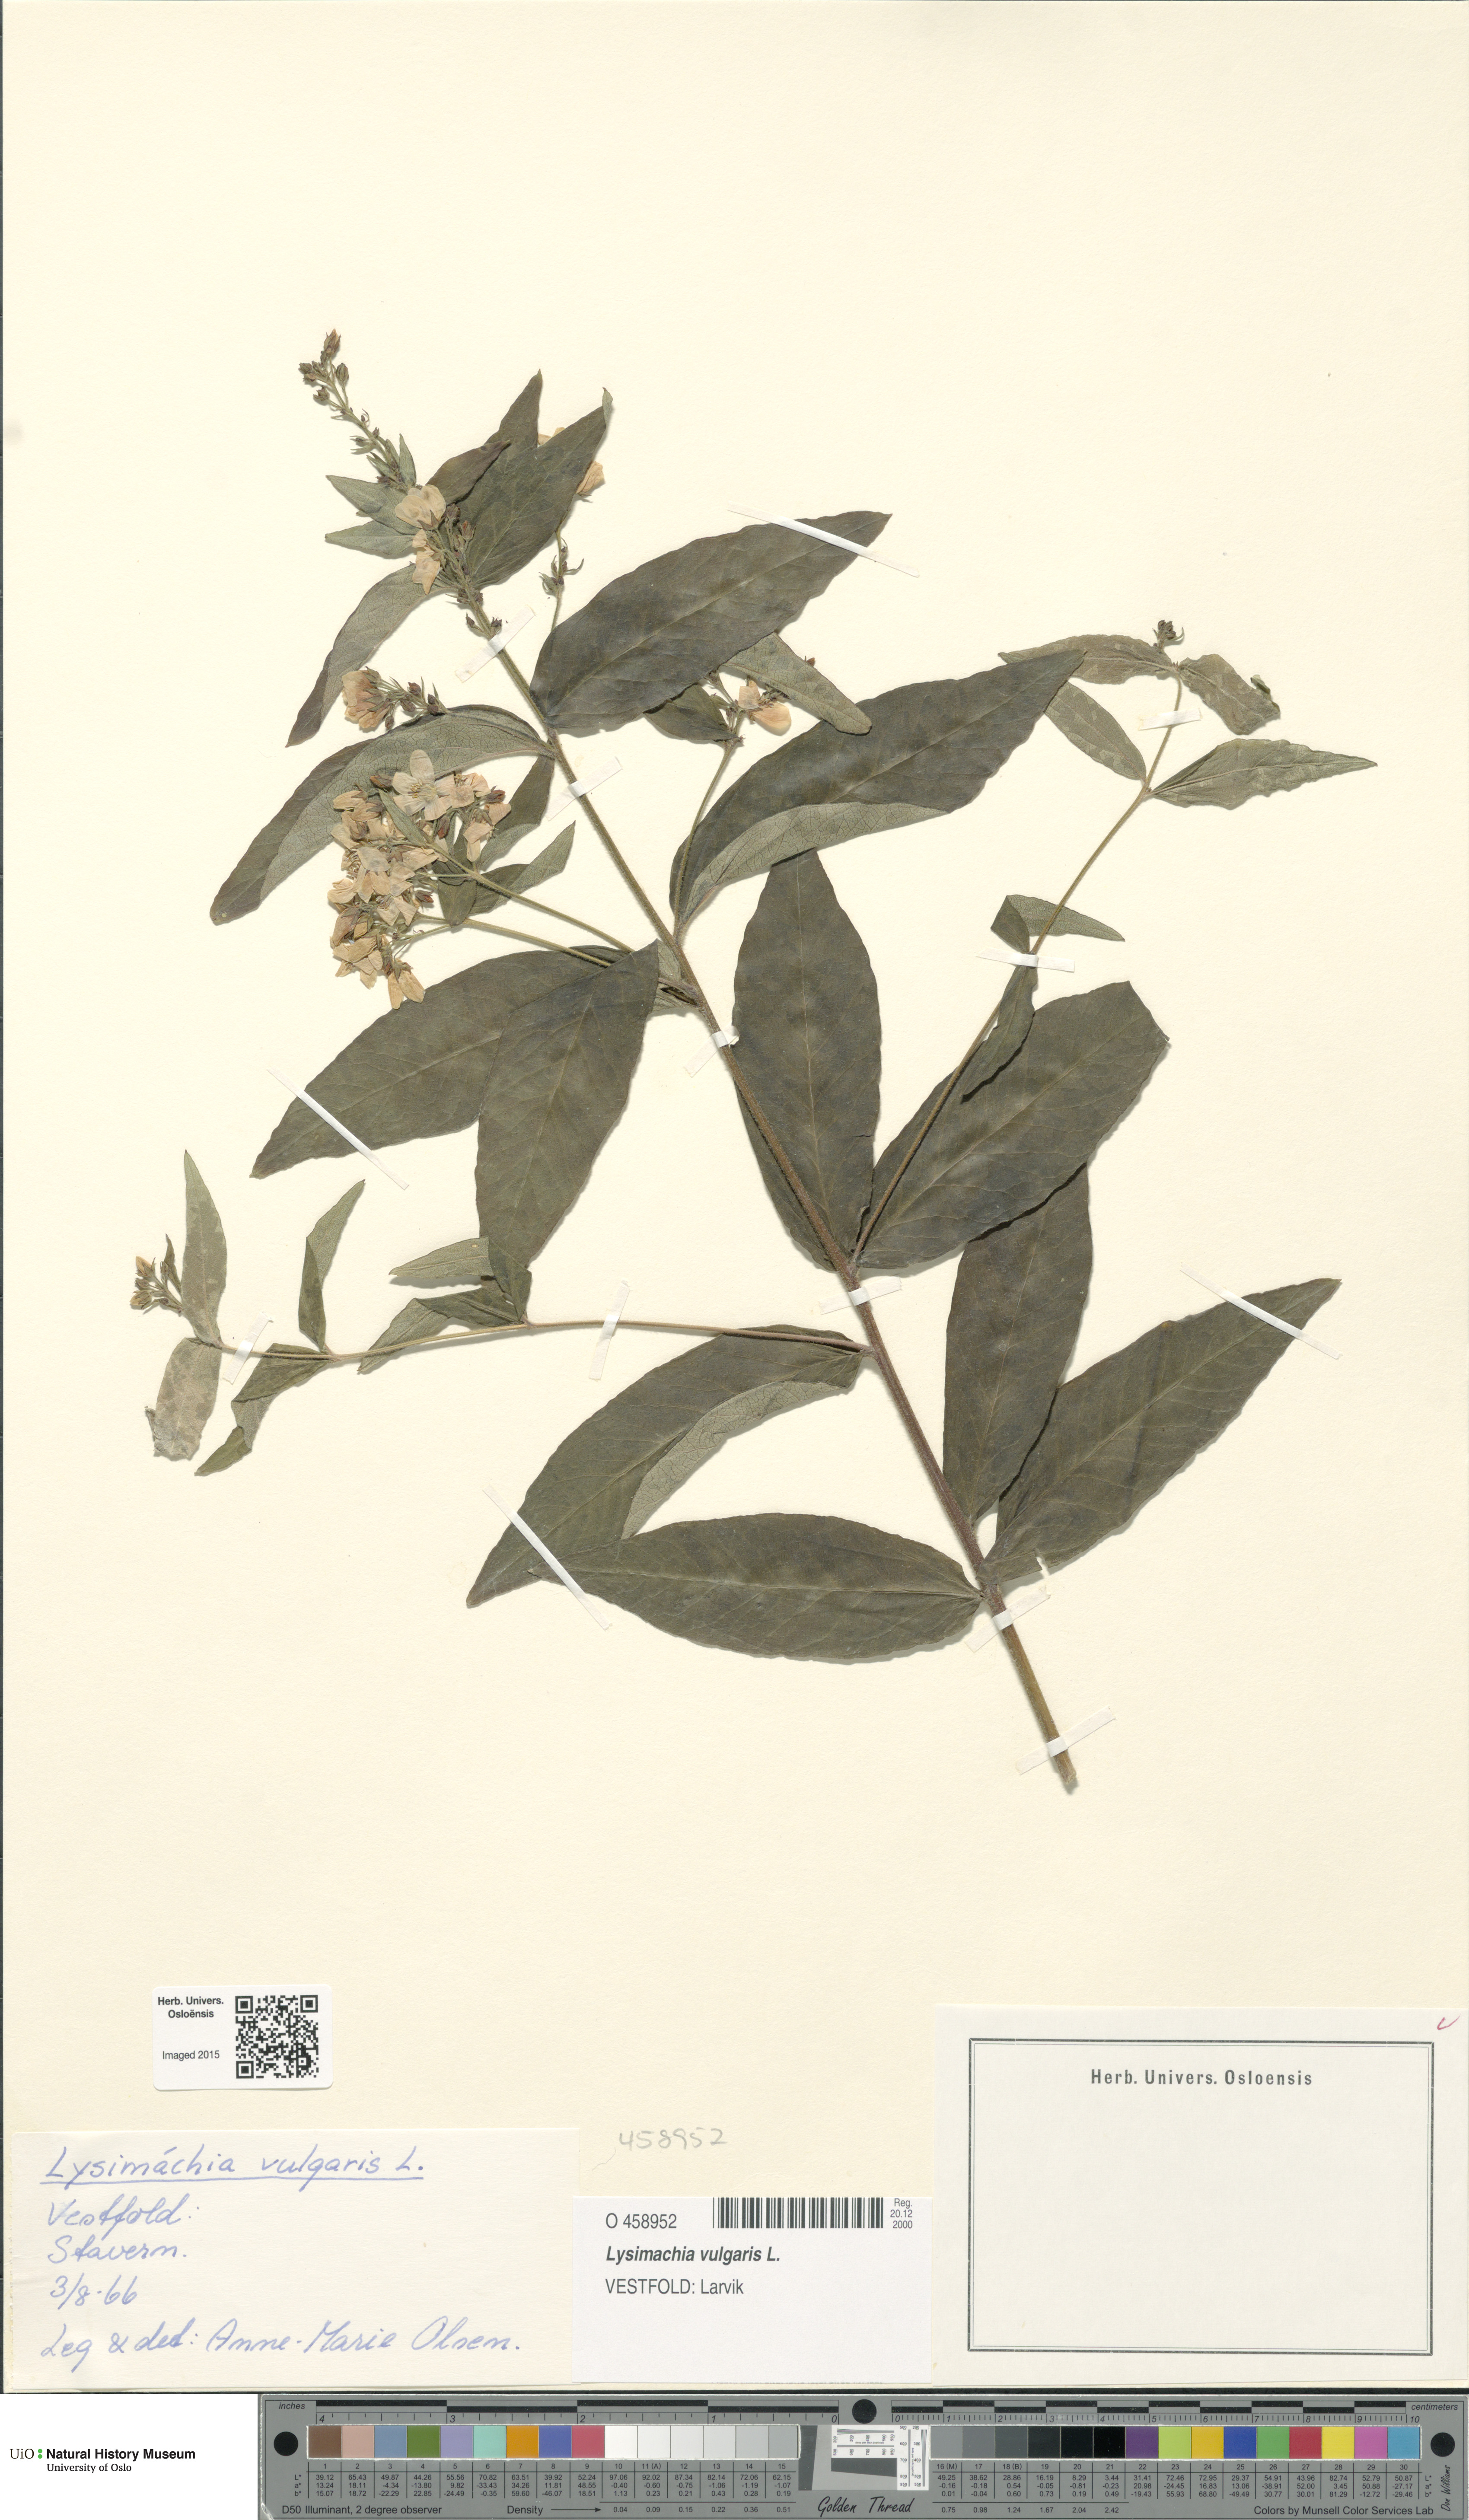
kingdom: Plantae
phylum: Tracheophyta
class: Magnoliopsida
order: Ericales
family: Primulaceae
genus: Lysimachia
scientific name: Lysimachia vulgaris
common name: Yellow loosestrife
